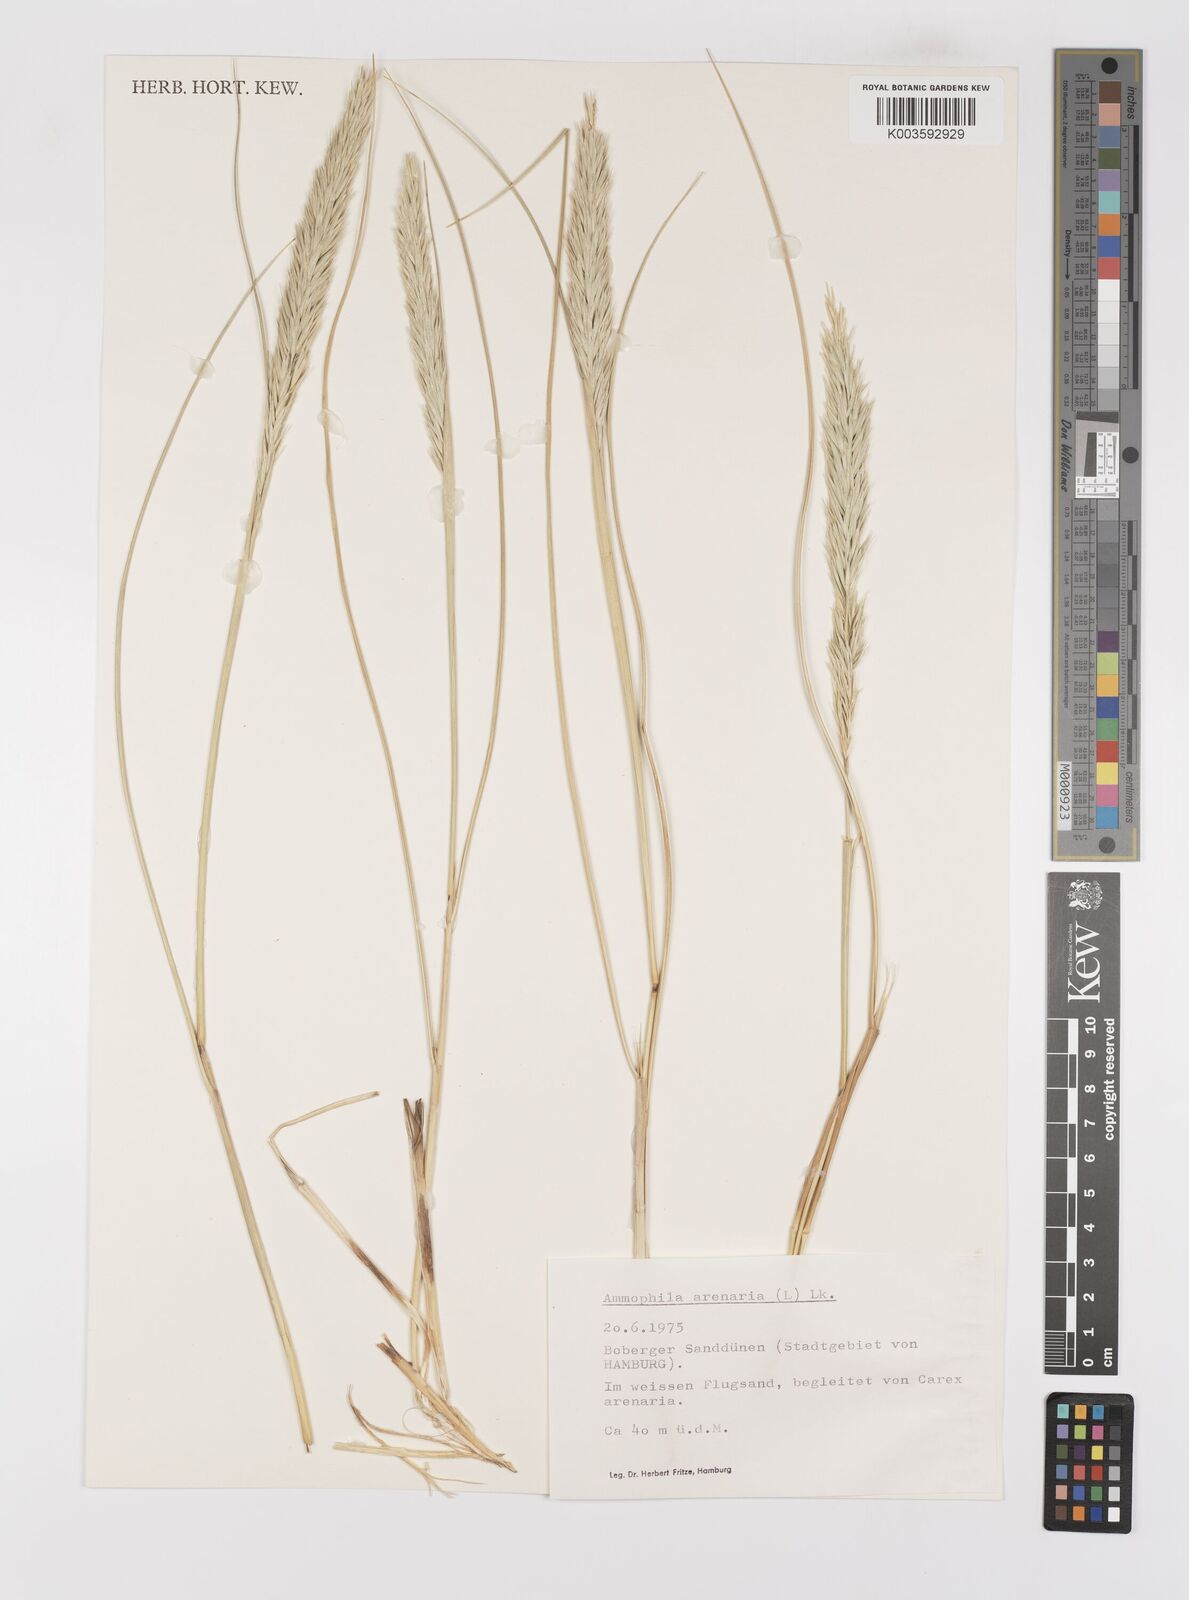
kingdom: Plantae
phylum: Tracheophyta
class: Liliopsida
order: Poales
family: Poaceae
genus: Calamagrostis
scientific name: Calamagrostis arenaria
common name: European beachgrass
